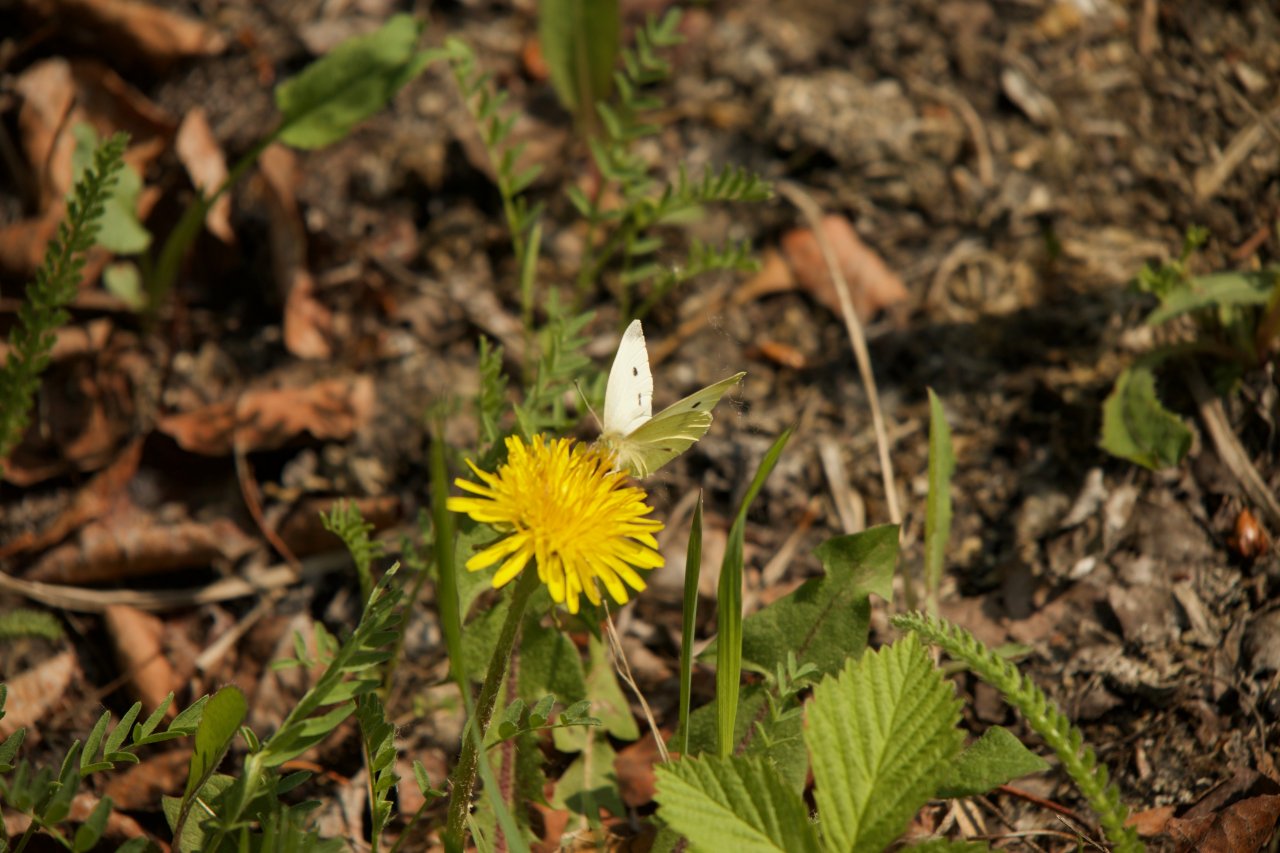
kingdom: Animalia
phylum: Arthropoda
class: Insecta
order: Lepidoptera
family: Pieridae
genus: Pieris
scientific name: Pieris rapae
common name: Cabbage White
